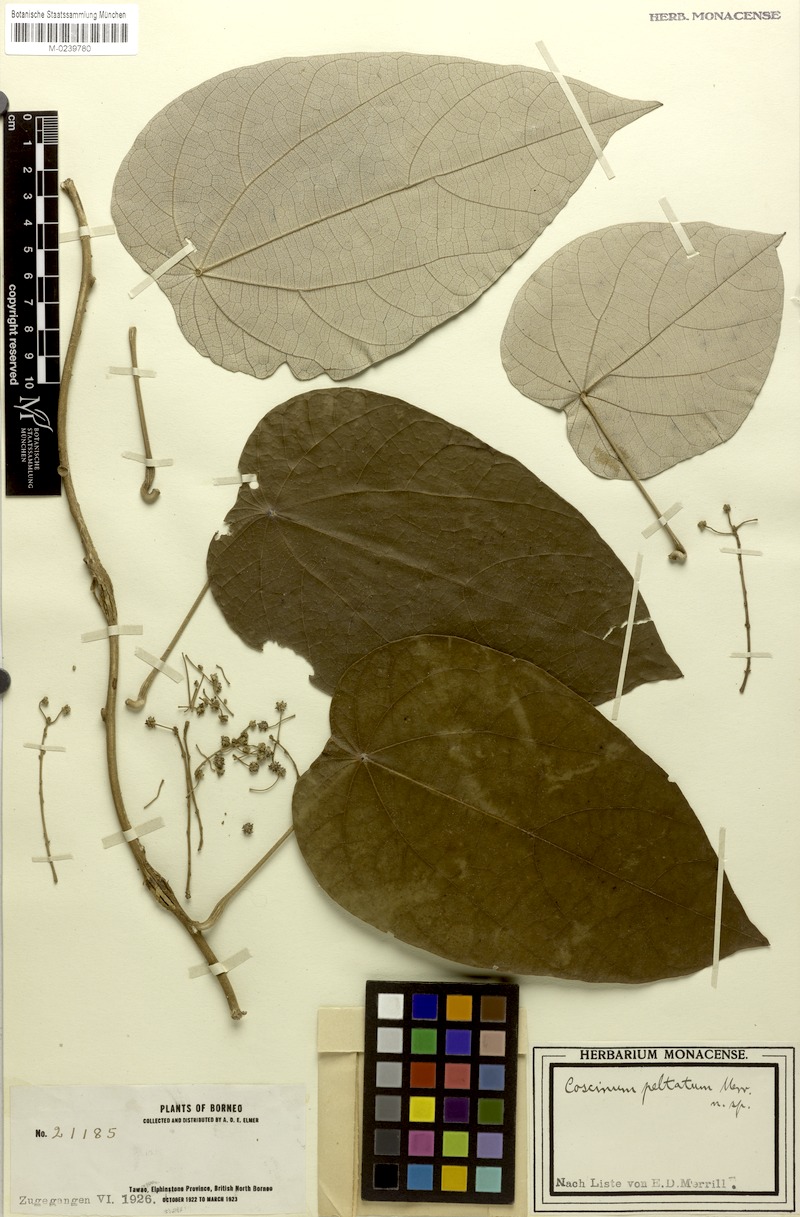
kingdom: Plantae
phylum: Tracheophyta
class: Magnoliopsida
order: Ranunculales
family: Menispermaceae
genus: Coscinium
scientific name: Coscinium fenestratum
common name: False calumba
